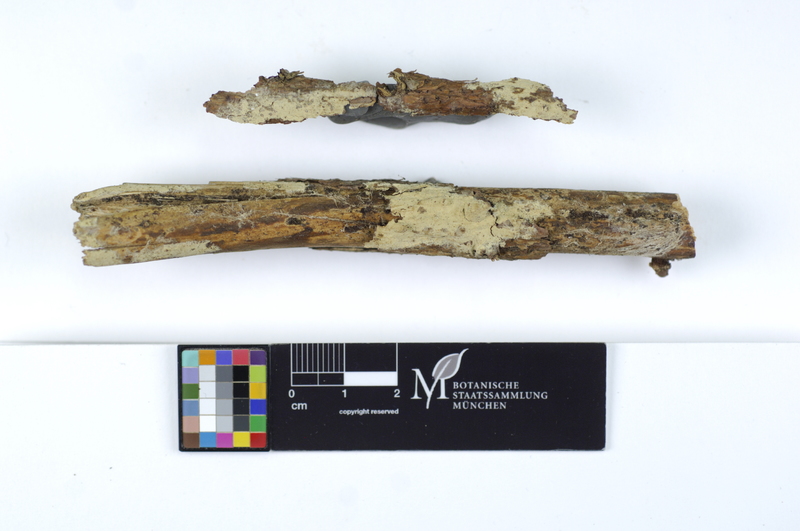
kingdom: Plantae
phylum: Tracheophyta
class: Pinopsida
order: Pinales
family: Pinaceae
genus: Picea
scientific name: Picea
